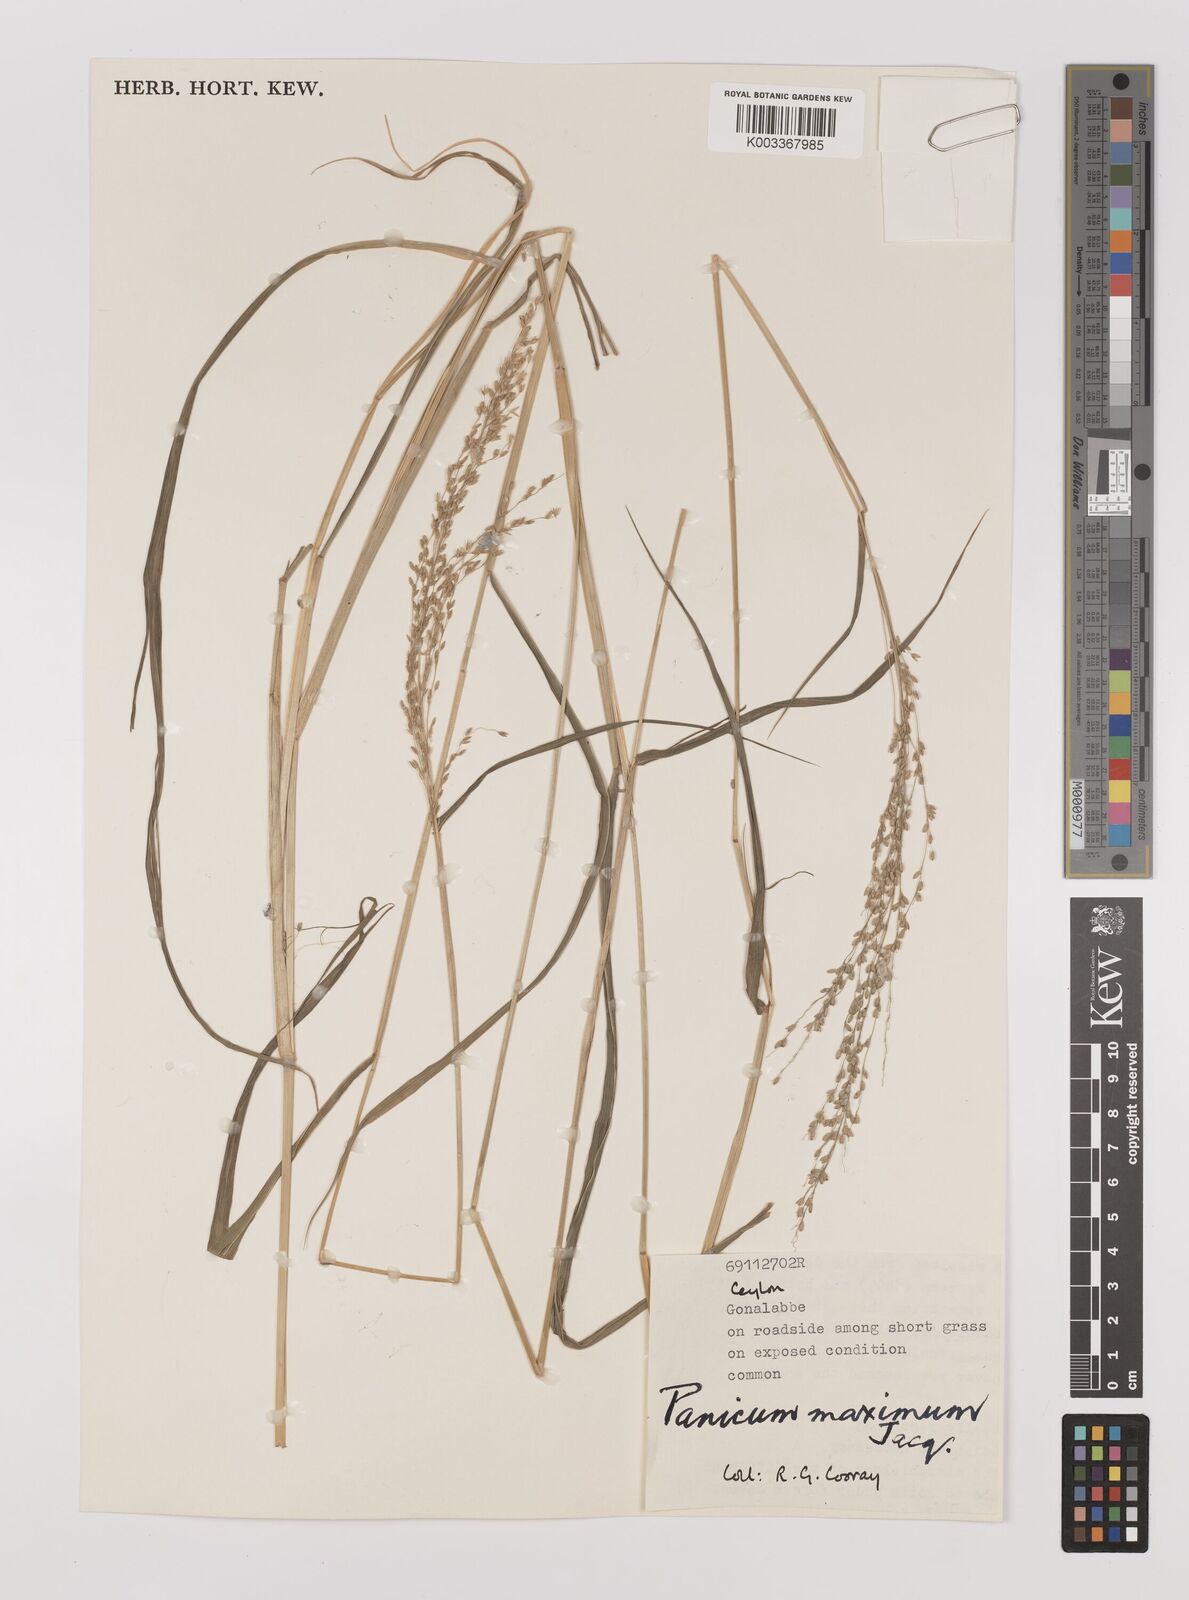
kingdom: Plantae
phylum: Tracheophyta
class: Liliopsida
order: Poales
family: Poaceae
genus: Megathyrsus
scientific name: Megathyrsus maximus
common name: Guineagrass
